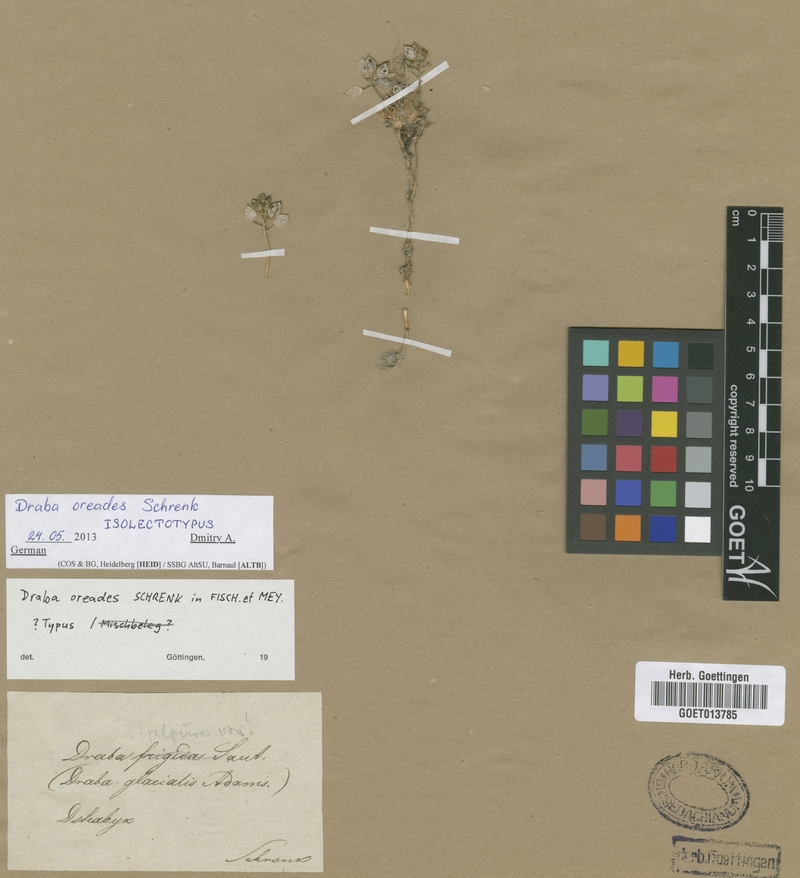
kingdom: Plantae
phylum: Tracheophyta
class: Magnoliopsida
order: Brassicales
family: Brassicaceae
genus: Draba
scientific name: Draba oreades
